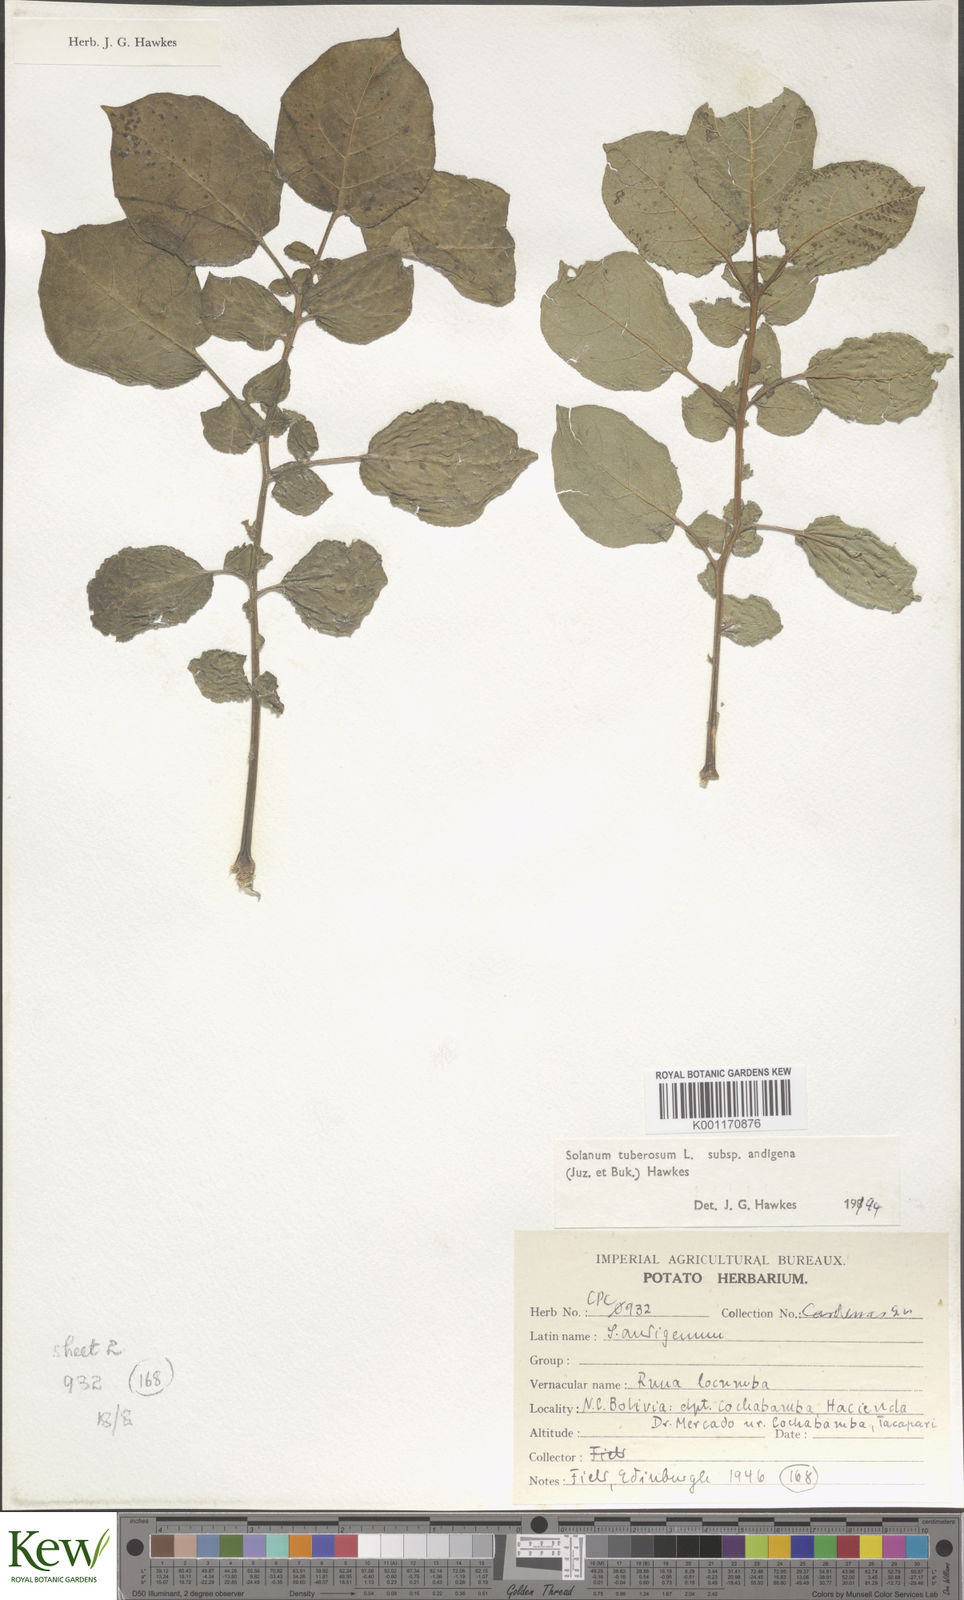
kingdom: Plantae
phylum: Tracheophyta
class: Magnoliopsida
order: Solanales
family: Solanaceae
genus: Solanum
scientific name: Solanum tuberosum
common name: Potato
